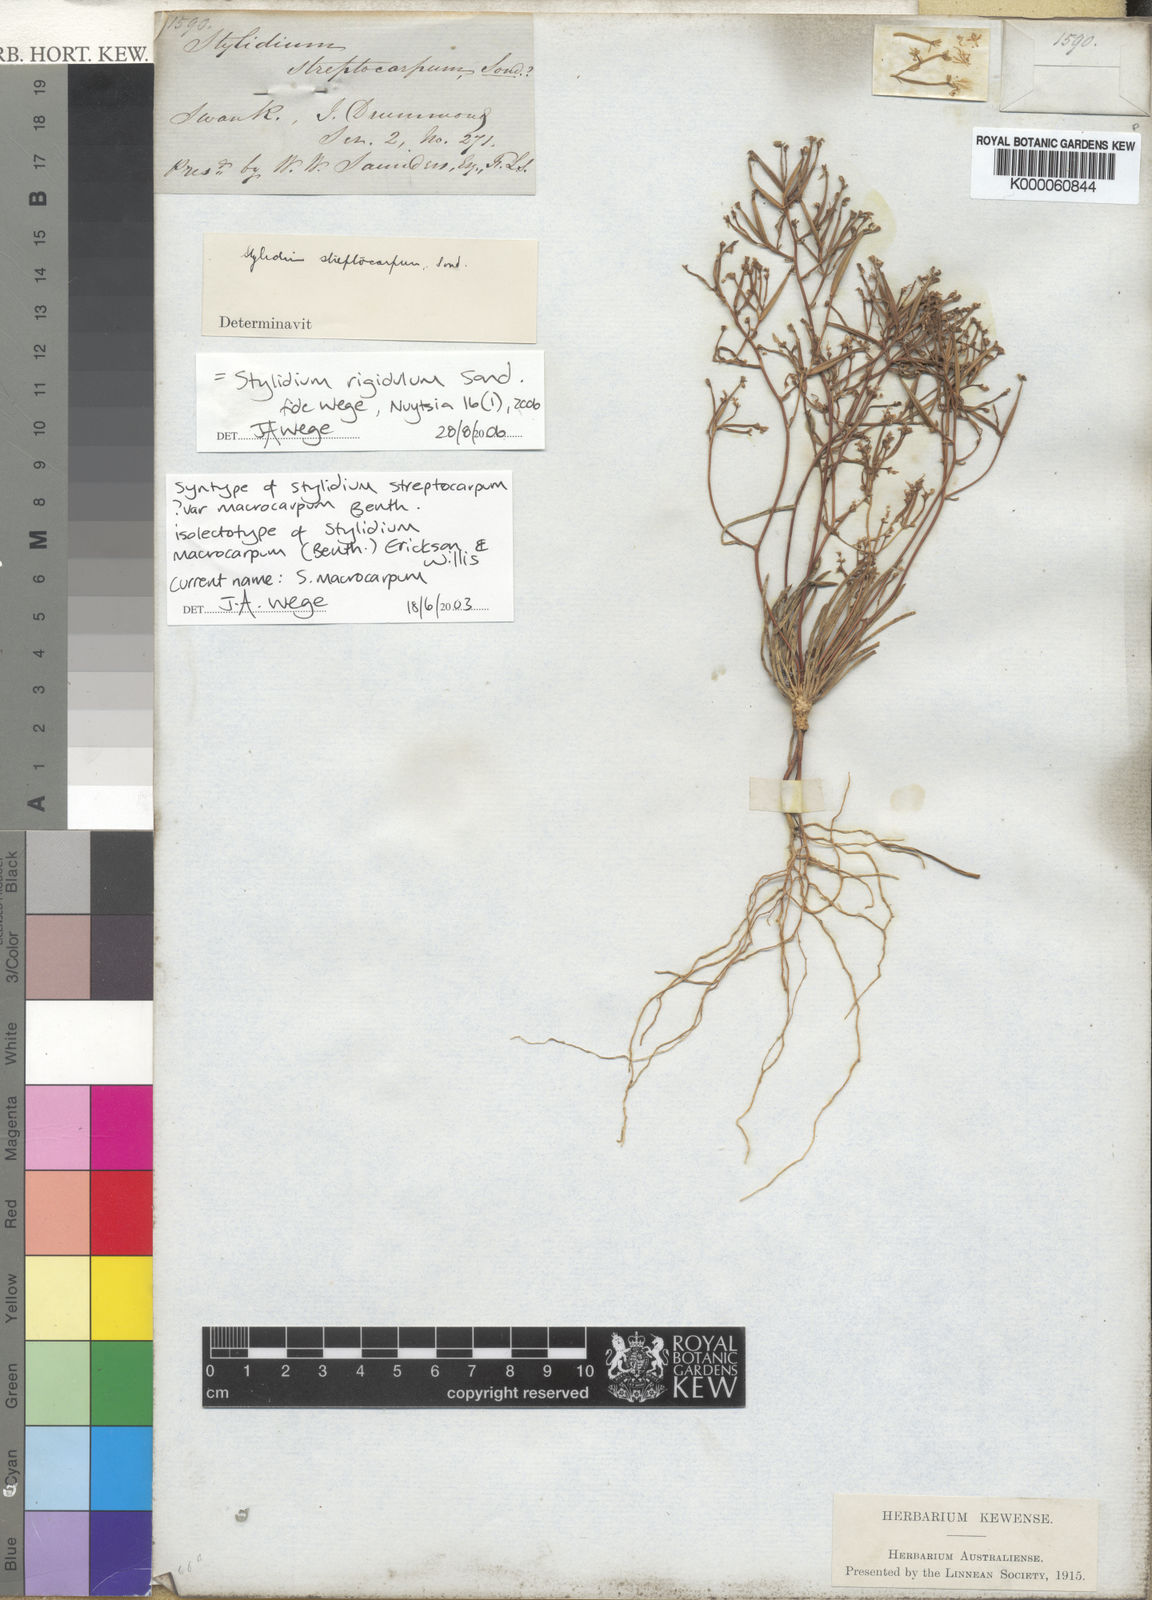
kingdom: Plantae
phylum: Tracheophyta
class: Magnoliopsida
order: Asterales
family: Stylidiaceae
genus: Stylidium
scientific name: Stylidium rigidulum
